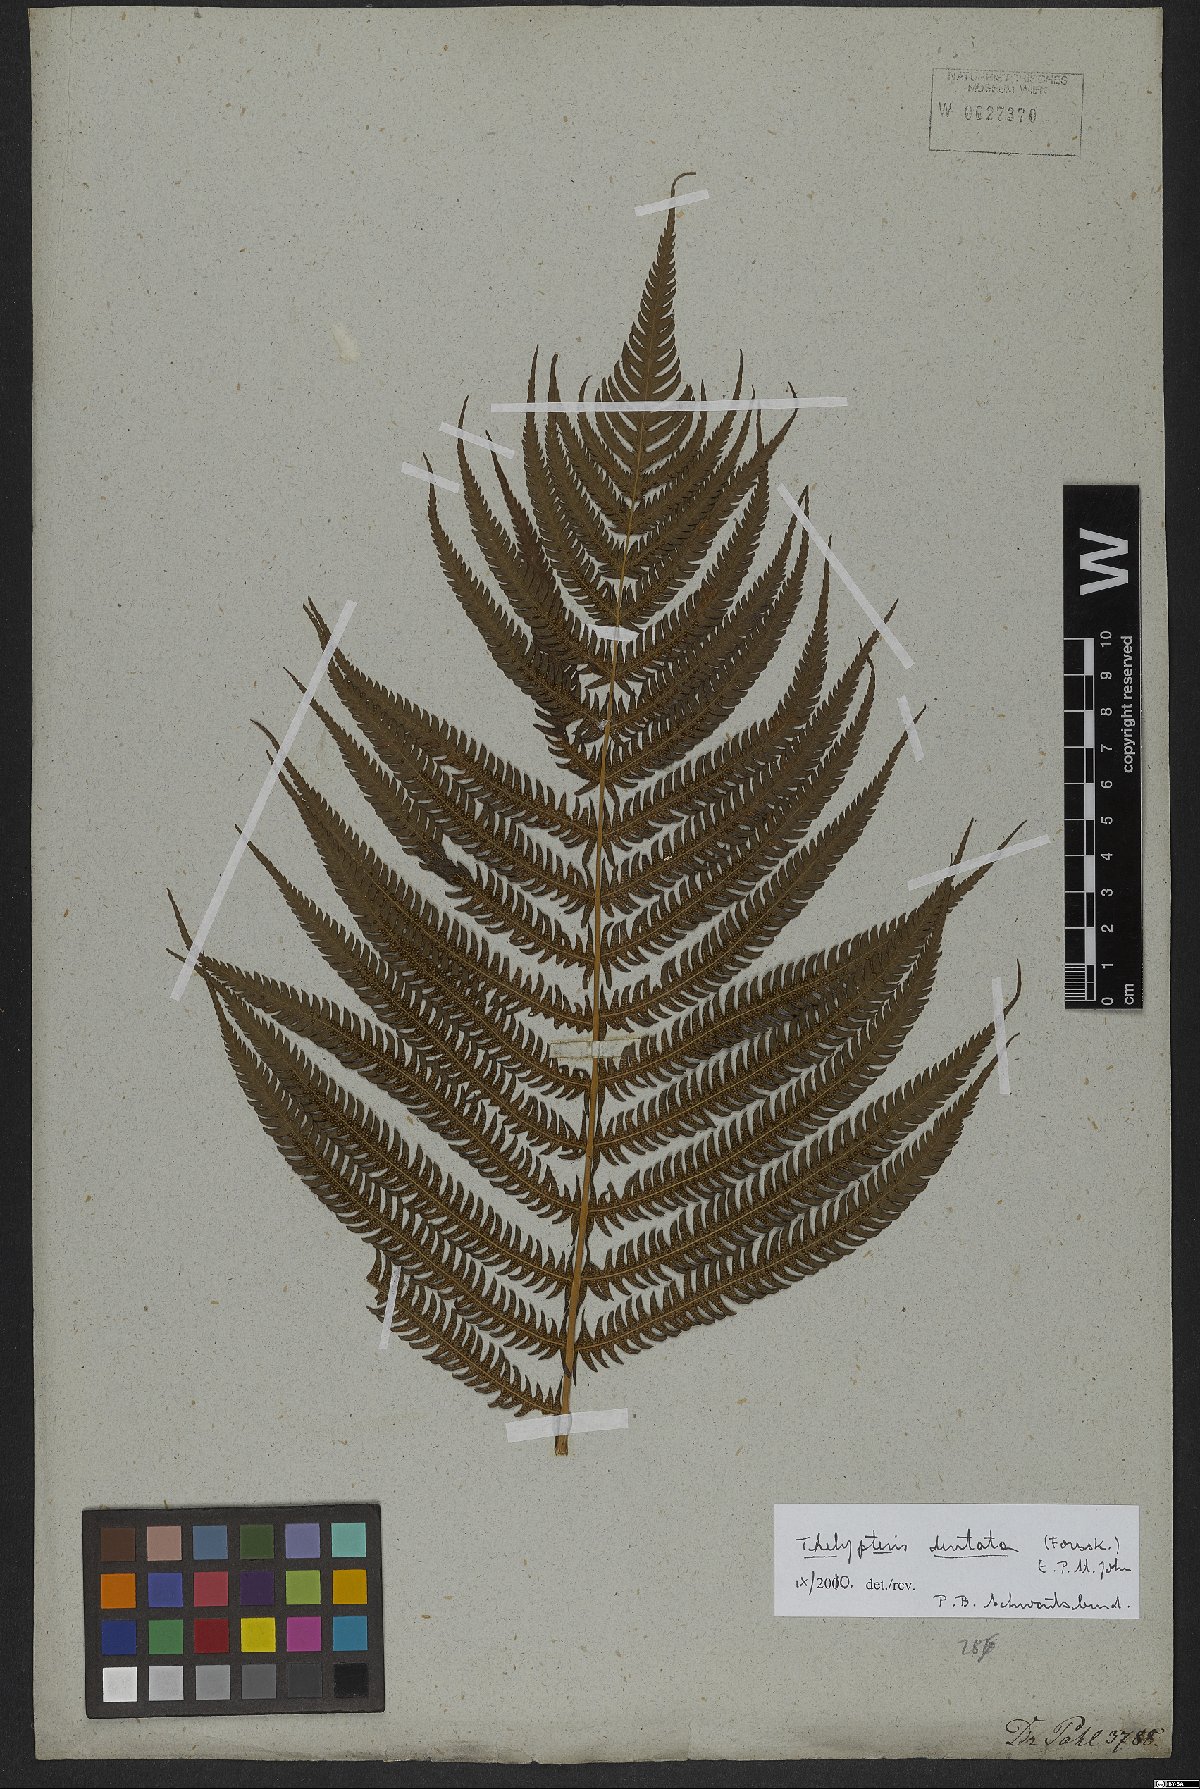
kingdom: Plantae
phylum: Tracheophyta
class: Polypodiopsida
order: Polypodiales
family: Thelypteridaceae
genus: Christella
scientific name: Christella dentata
